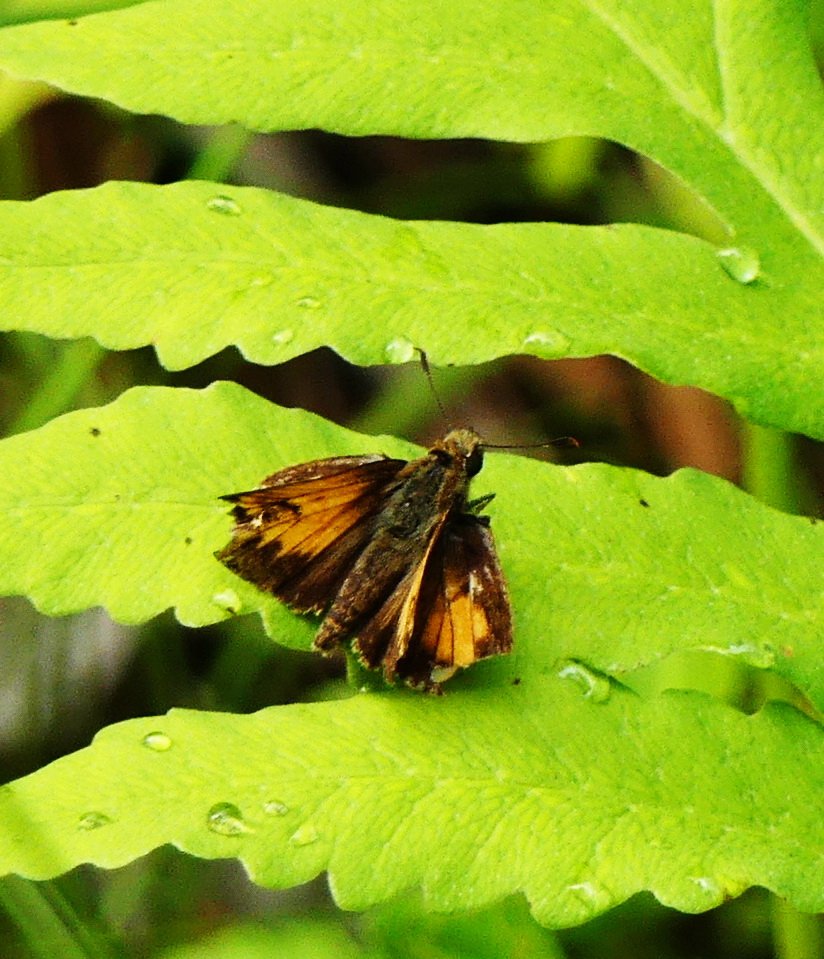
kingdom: Animalia
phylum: Arthropoda
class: Insecta
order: Lepidoptera
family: Hesperiidae
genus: Lon
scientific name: Lon hobomok
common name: Hobomok Skipper
